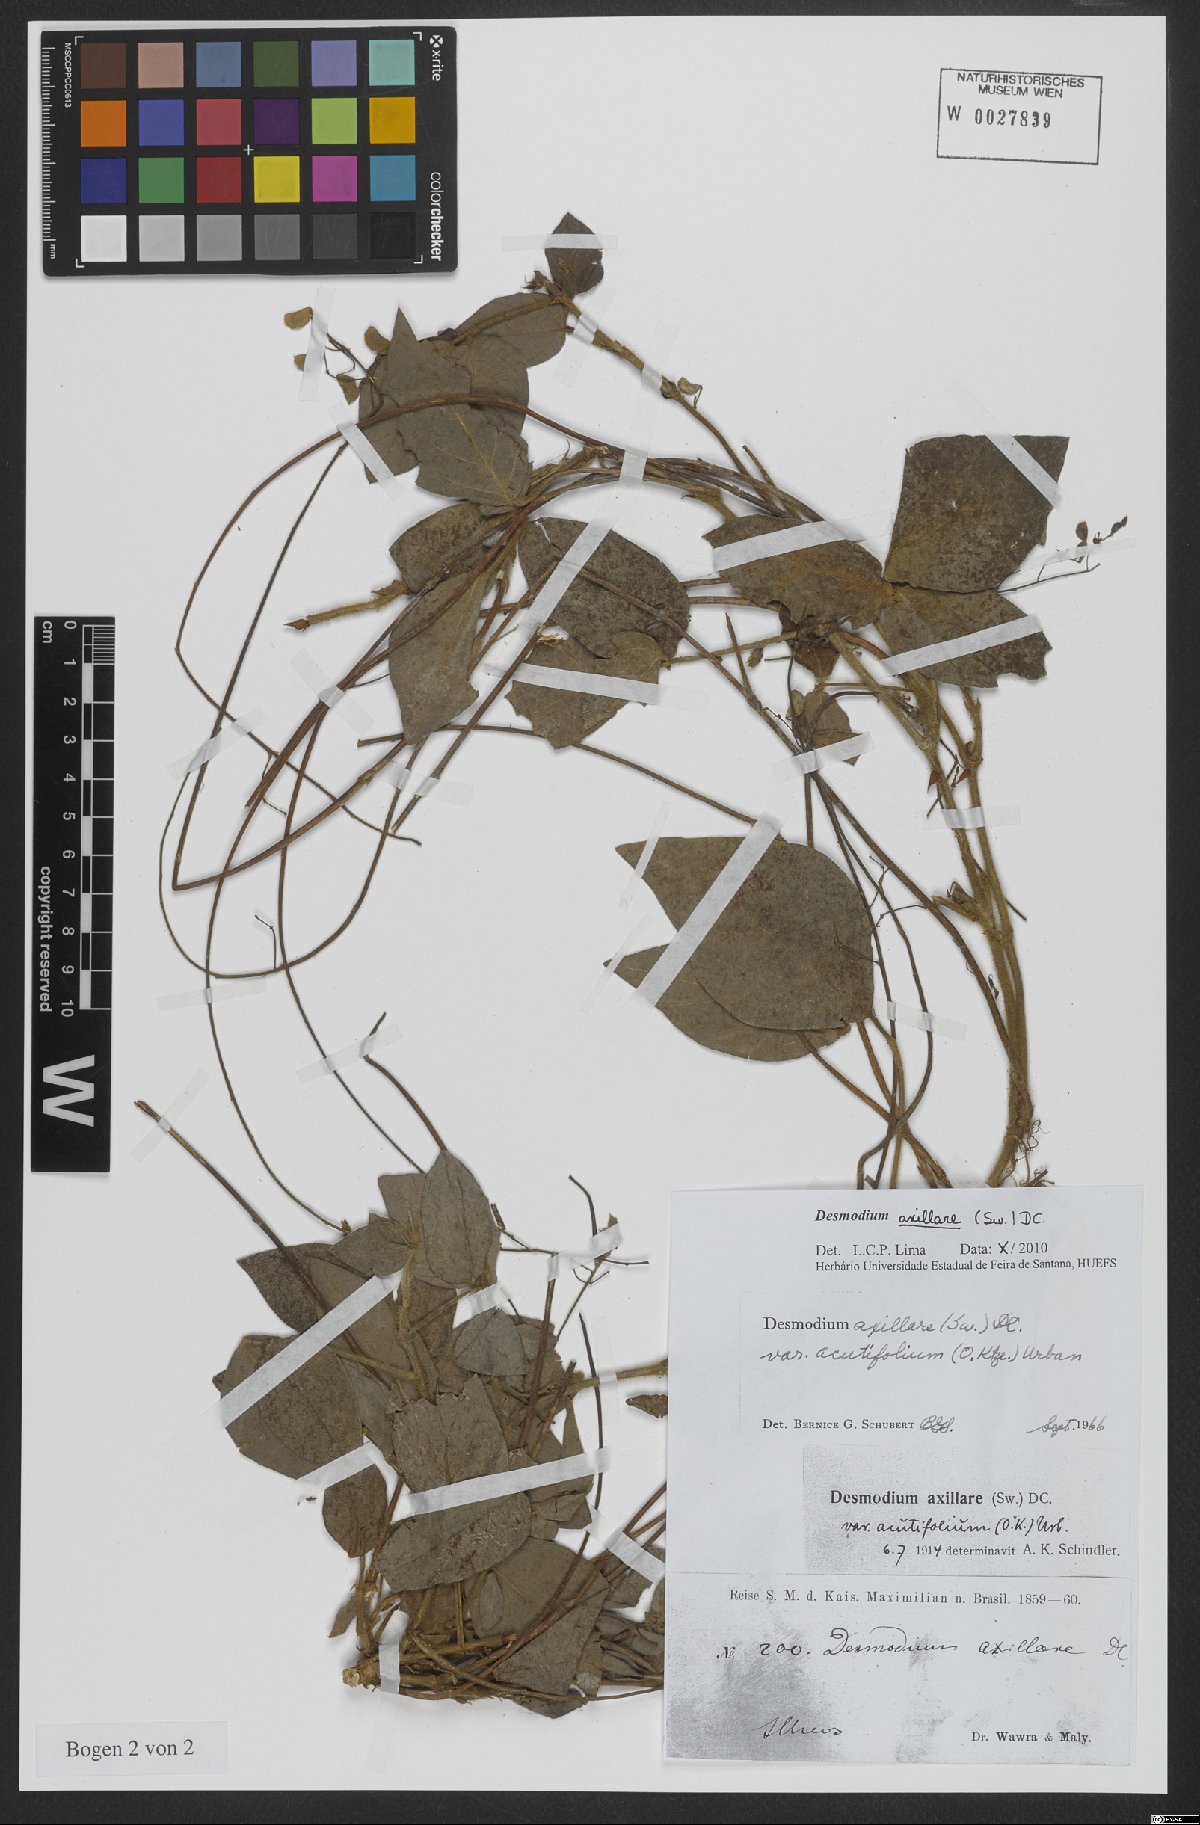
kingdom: Plantae
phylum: Tracheophyta
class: Magnoliopsida
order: Fabales
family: Fabaceae
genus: Desmodium
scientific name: Desmodium axillare
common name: Wire with
